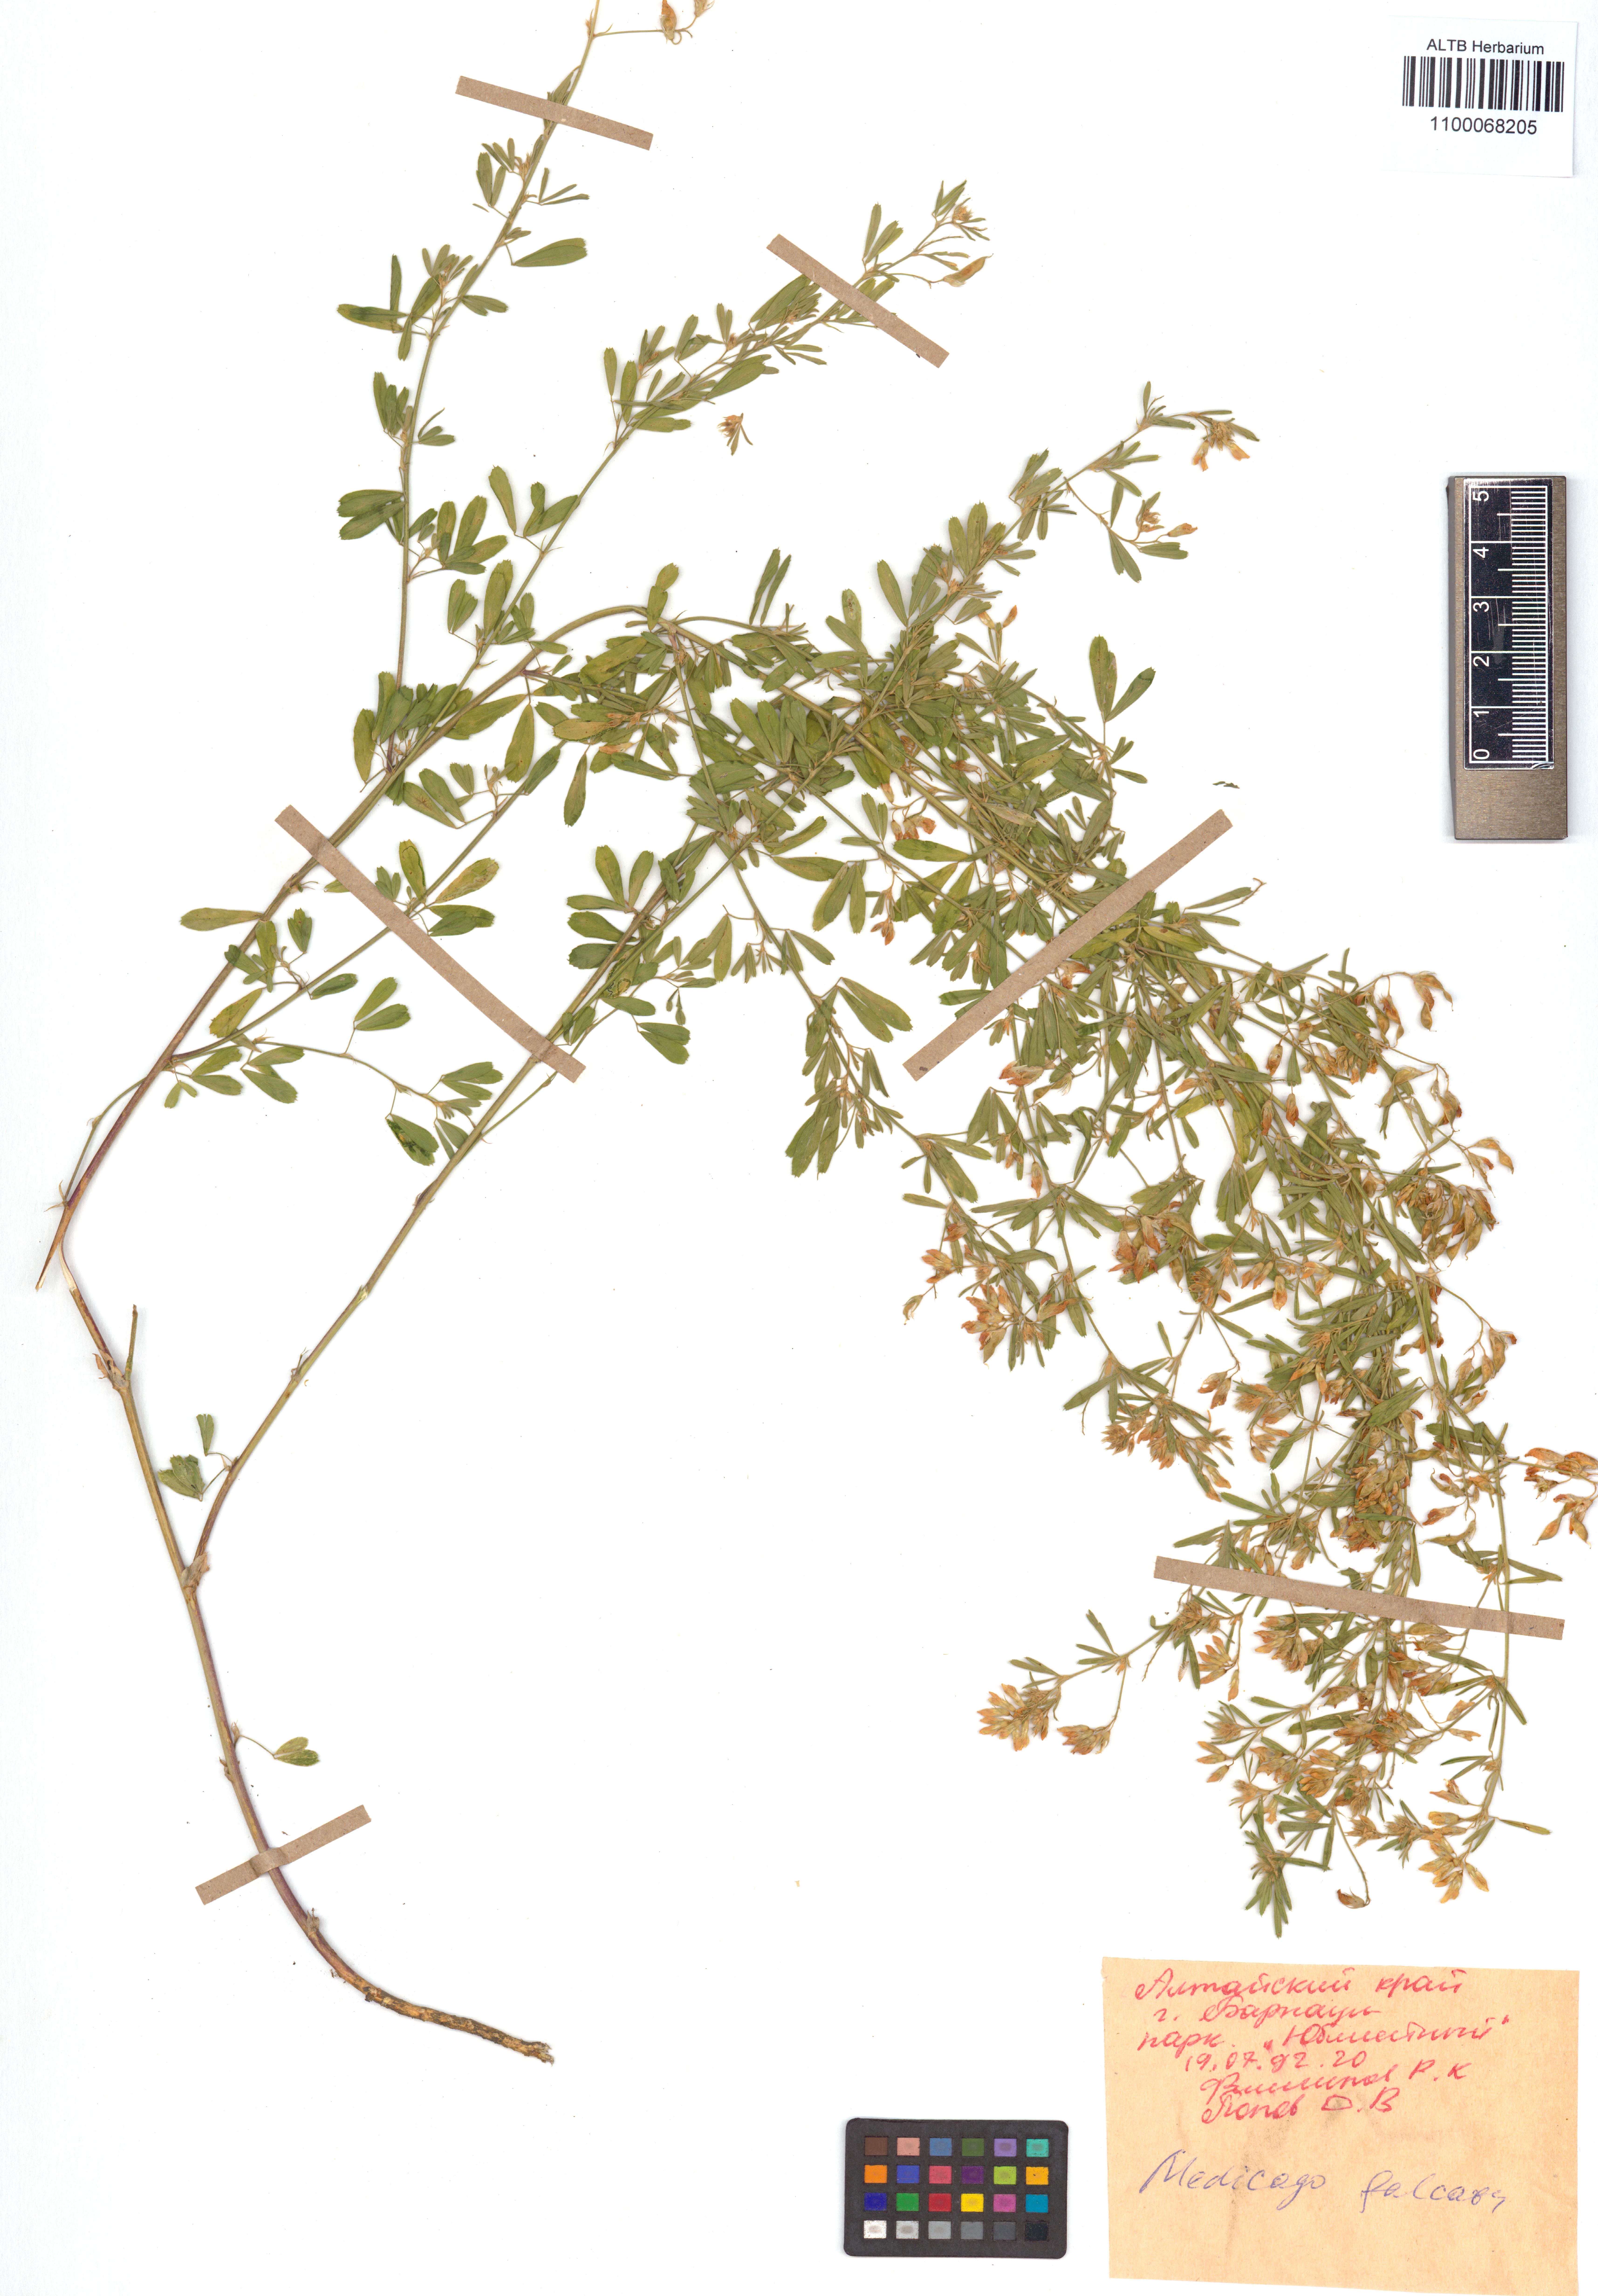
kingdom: Plantae
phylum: Tracheophyta
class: Magnoliopsida
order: Fabales
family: Fabaceae
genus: Medicago
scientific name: Medicago falcata
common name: Sickle medick
